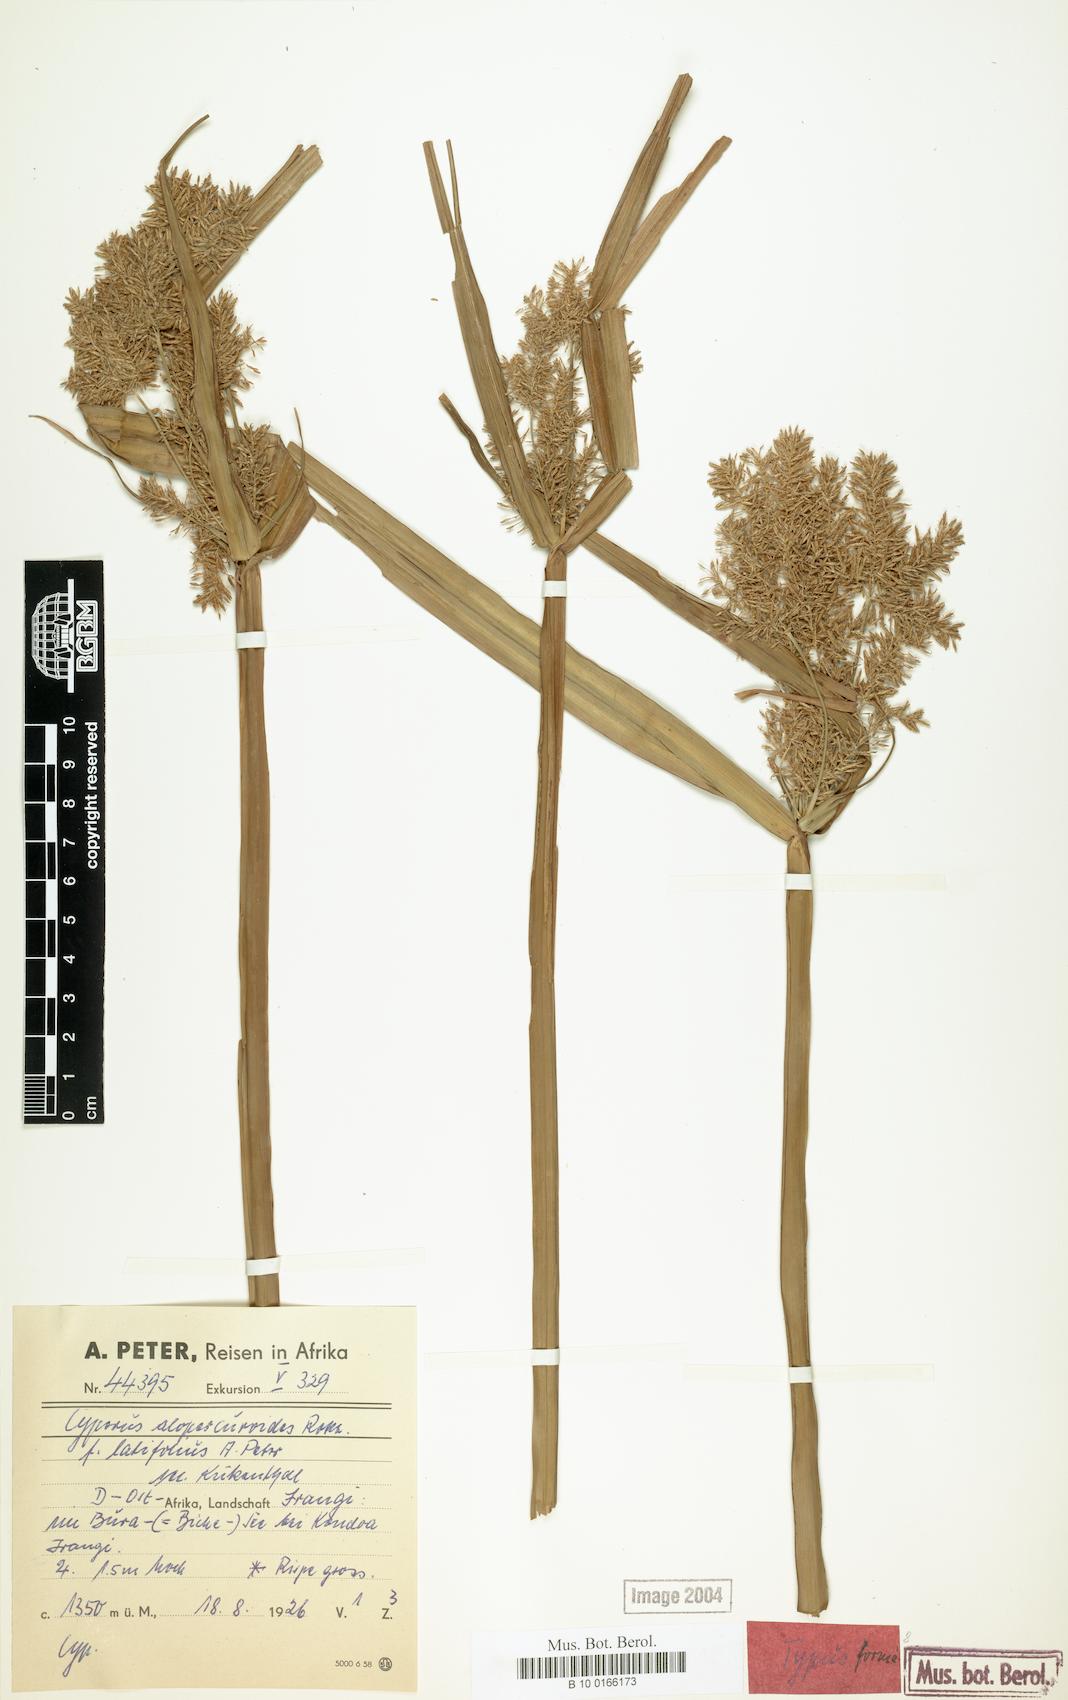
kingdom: Plantae
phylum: Tracheophyta
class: Liliopsida
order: Poales
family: Cyperaceae
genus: Cyperus
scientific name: Cyperus alopecuroides
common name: Foxtail flatsedge
